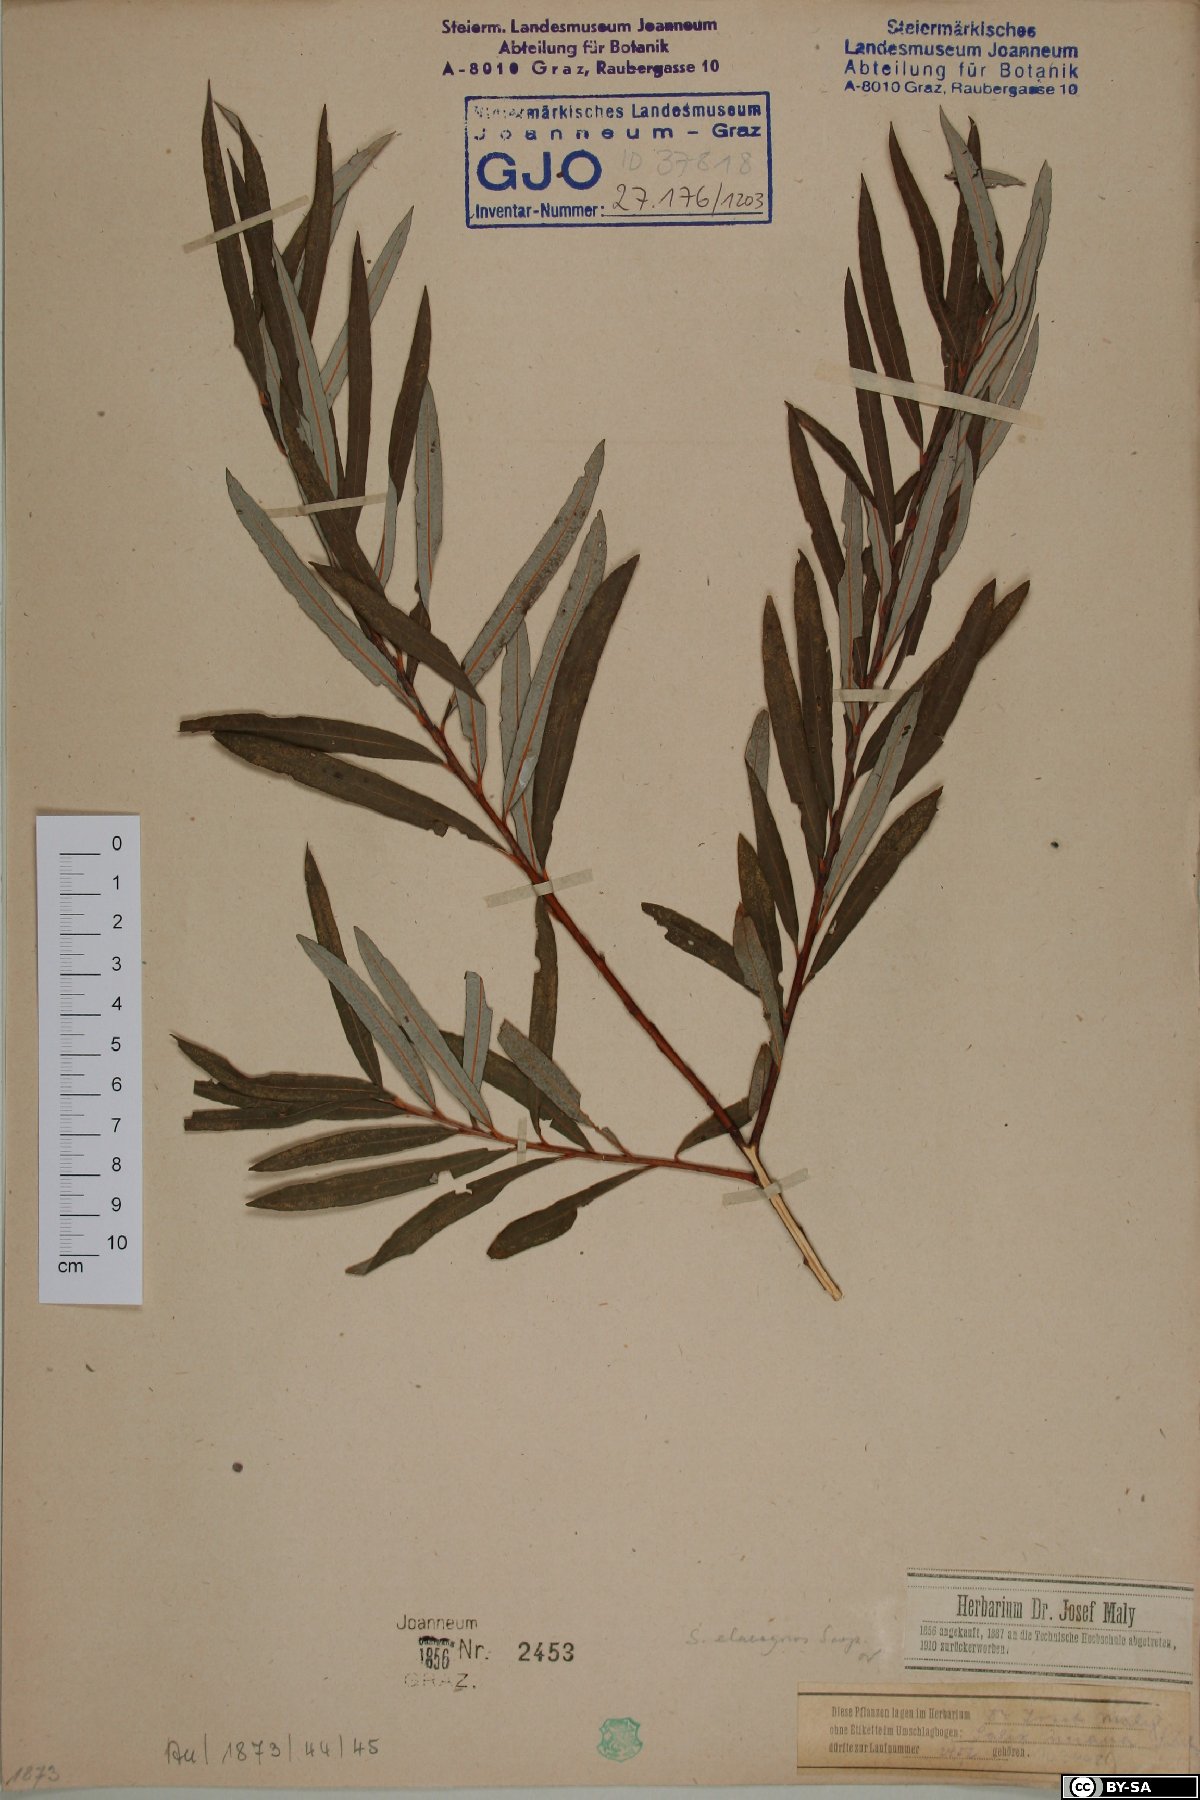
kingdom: Plantae
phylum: Tracheophyta
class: Magnoliopsida
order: Malpighiales
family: Salicaceae
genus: Salix
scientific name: Salix eleagnos
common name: Elaeagnus willow
